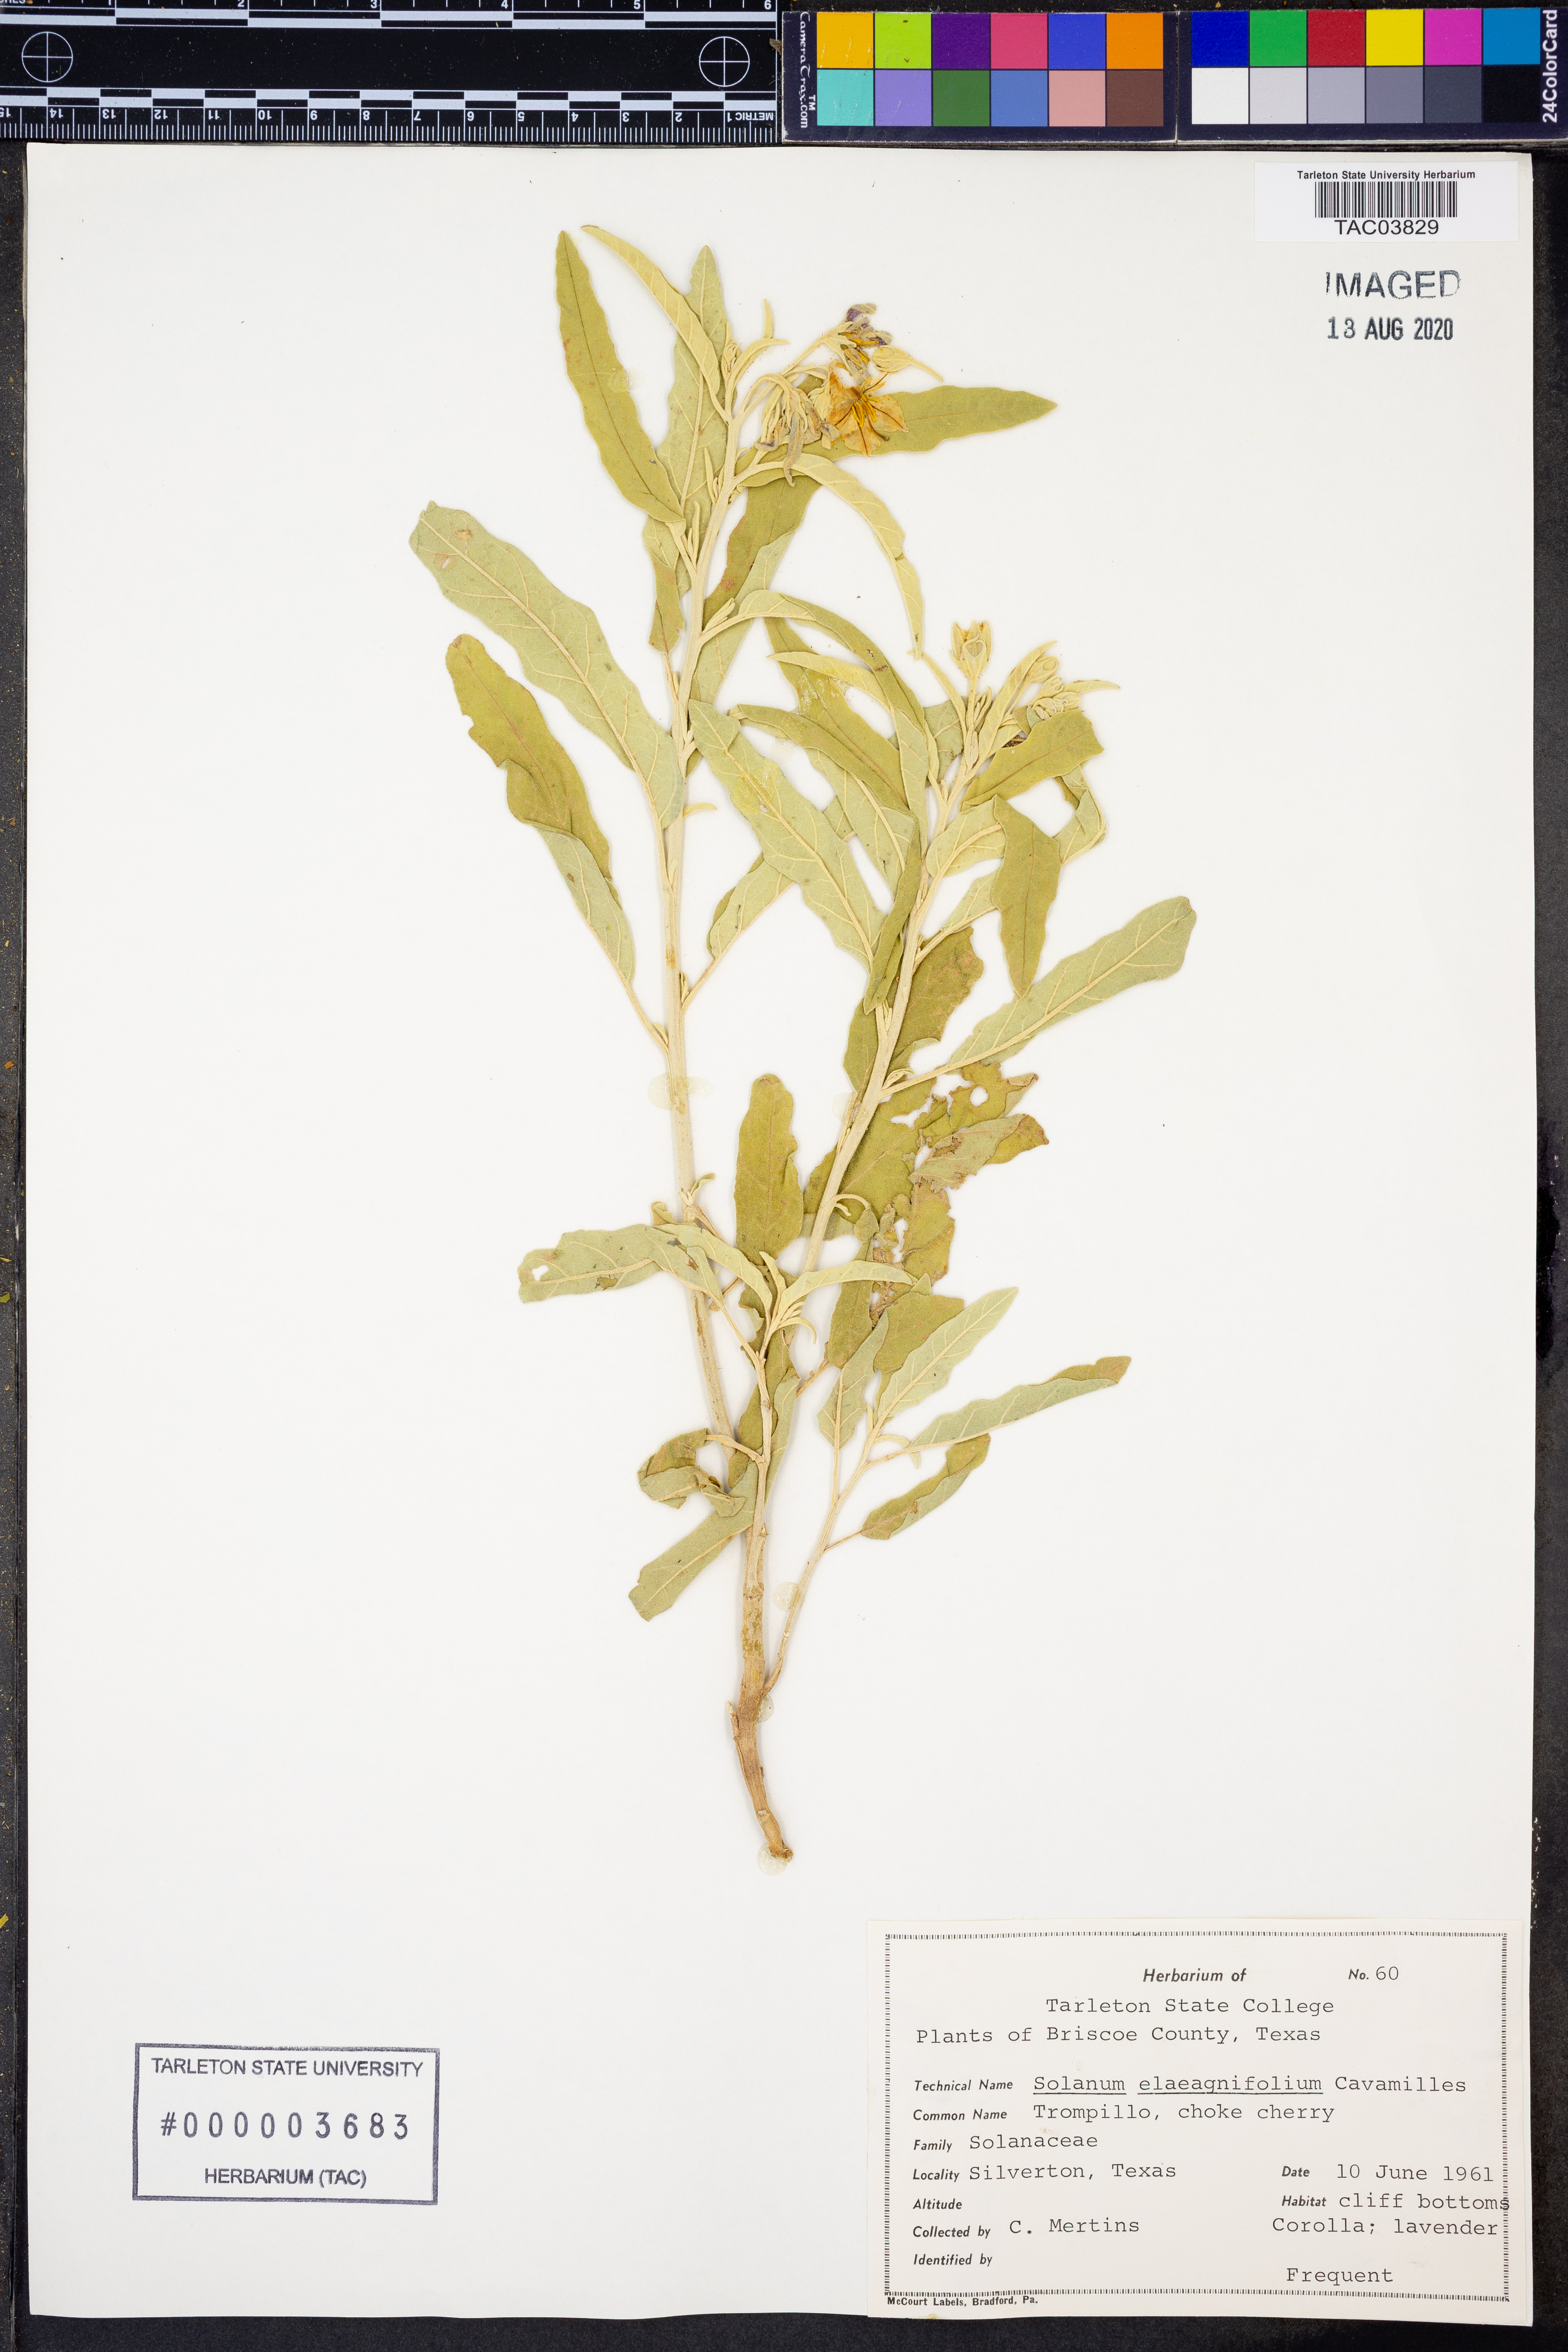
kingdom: Plantae
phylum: Tracheophyta
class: Magnoliopsida
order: Solanales
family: Solanaceae
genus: Solanum
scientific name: Solanum elaeagnifolium
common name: Silverleaf nightshade
